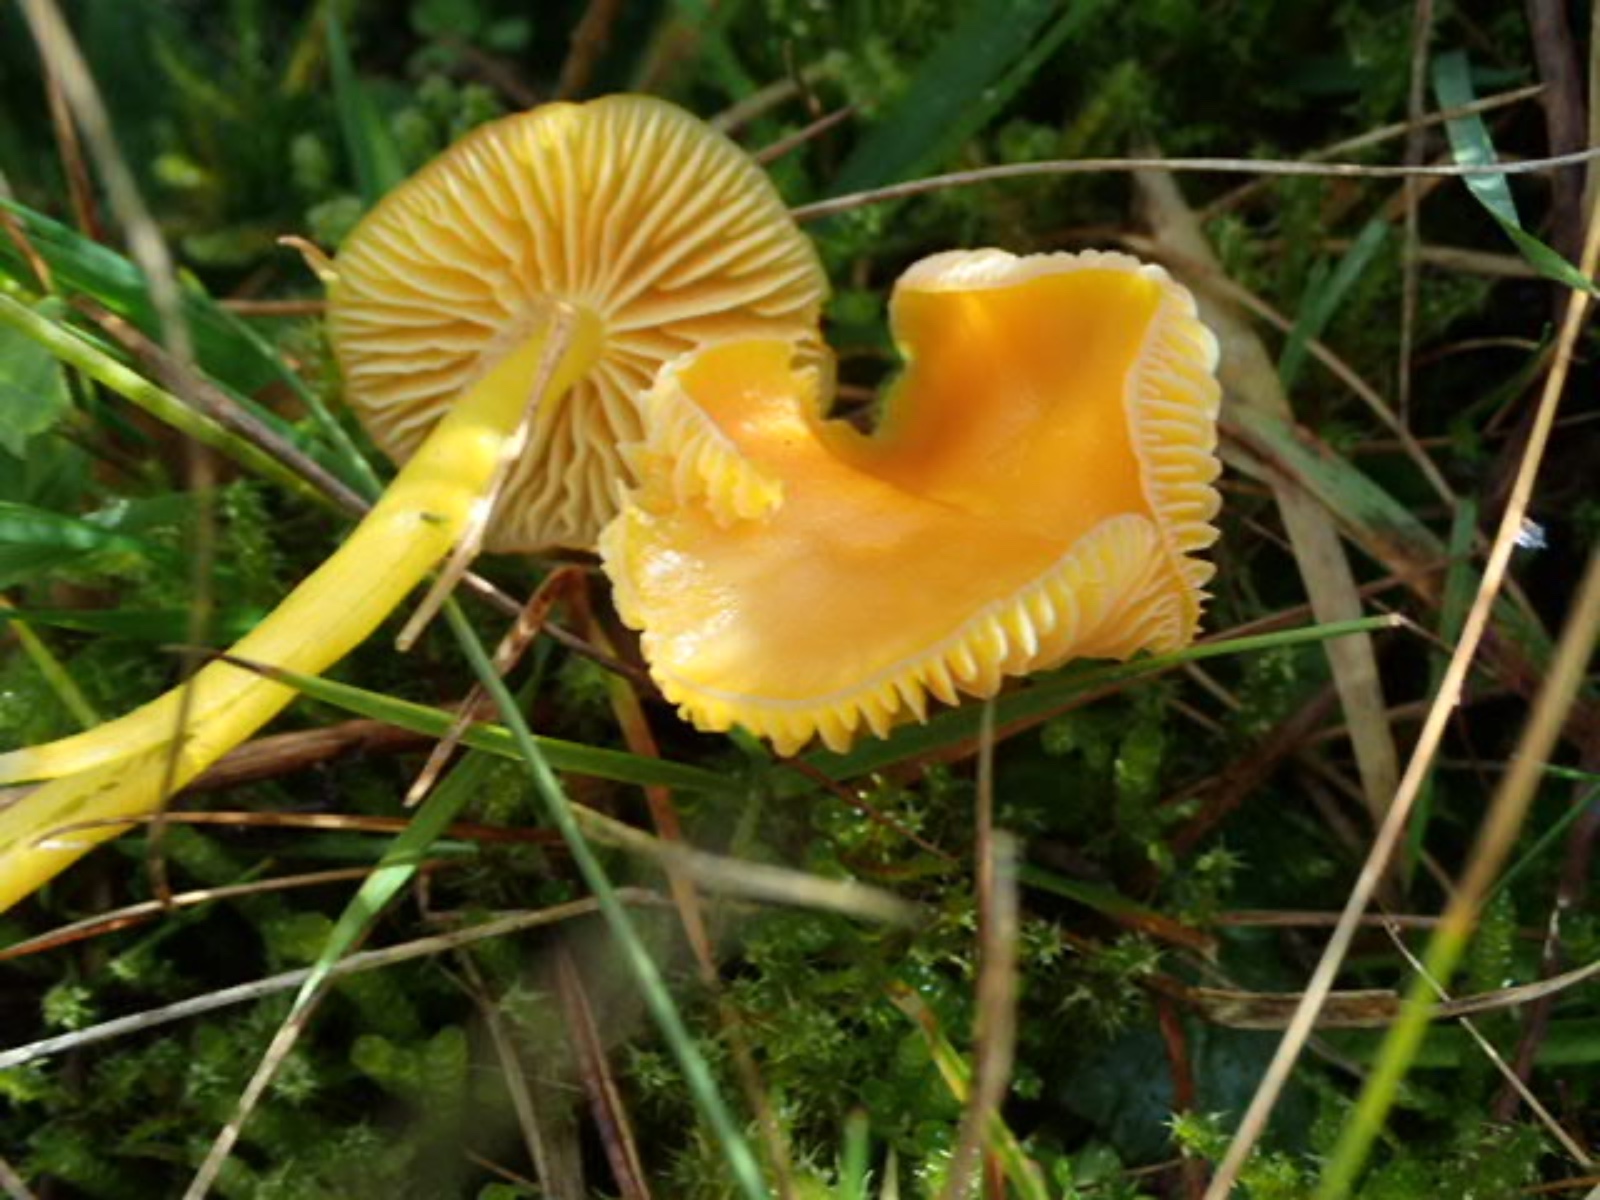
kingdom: Fungi
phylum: Basidiomycota
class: Agaricomycetes
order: Agaricales
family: Hygrophoraceae
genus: Hygrocybe
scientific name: Hygrocybe ceracea
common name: voksgul vokshat
